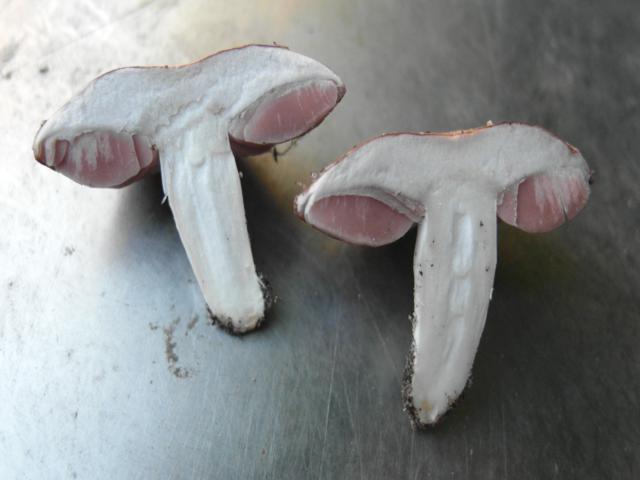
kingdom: Fungi
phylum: Basidiomycota
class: Agaricomycetes
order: Agaricales
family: Agaricaceae
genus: Agaricus
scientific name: Agaricus cupreobrunneus
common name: kobberbrun champignon
